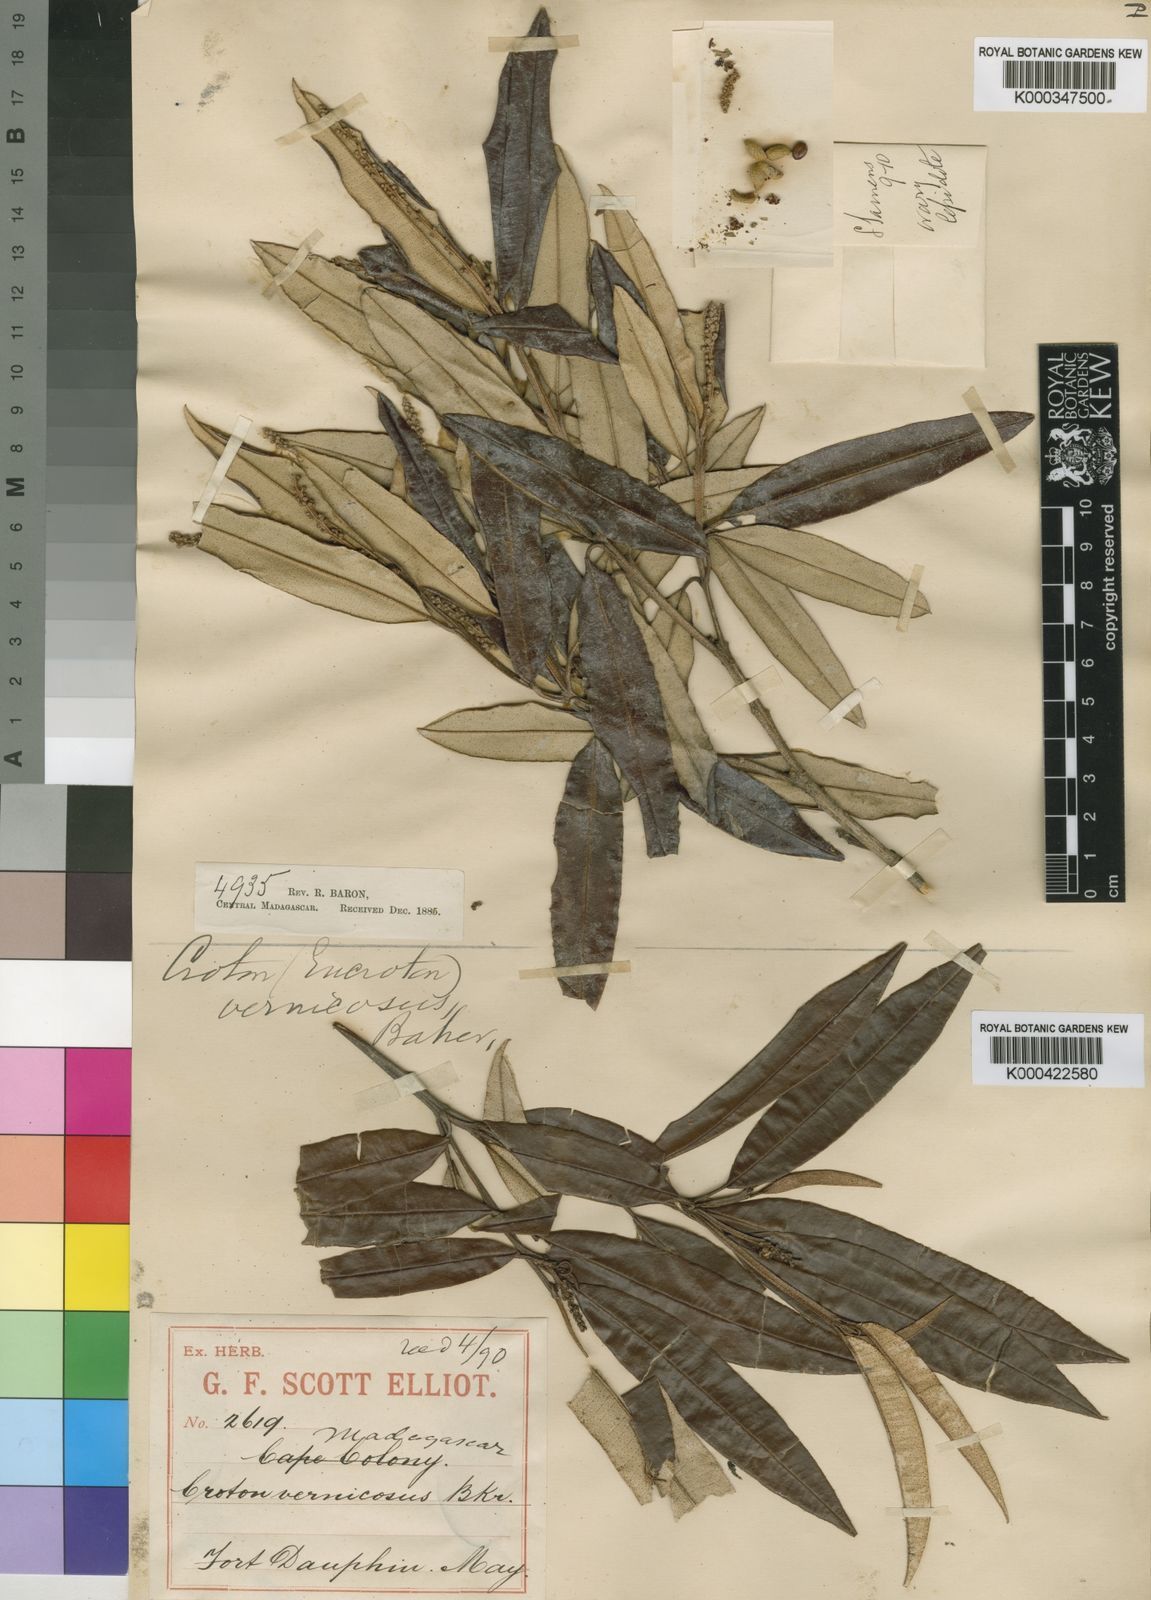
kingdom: Plantae
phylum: Tracheophyta
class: Magnoliopsida
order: Malpighiales
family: Euphorbiaceae
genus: Croton
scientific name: Croton
